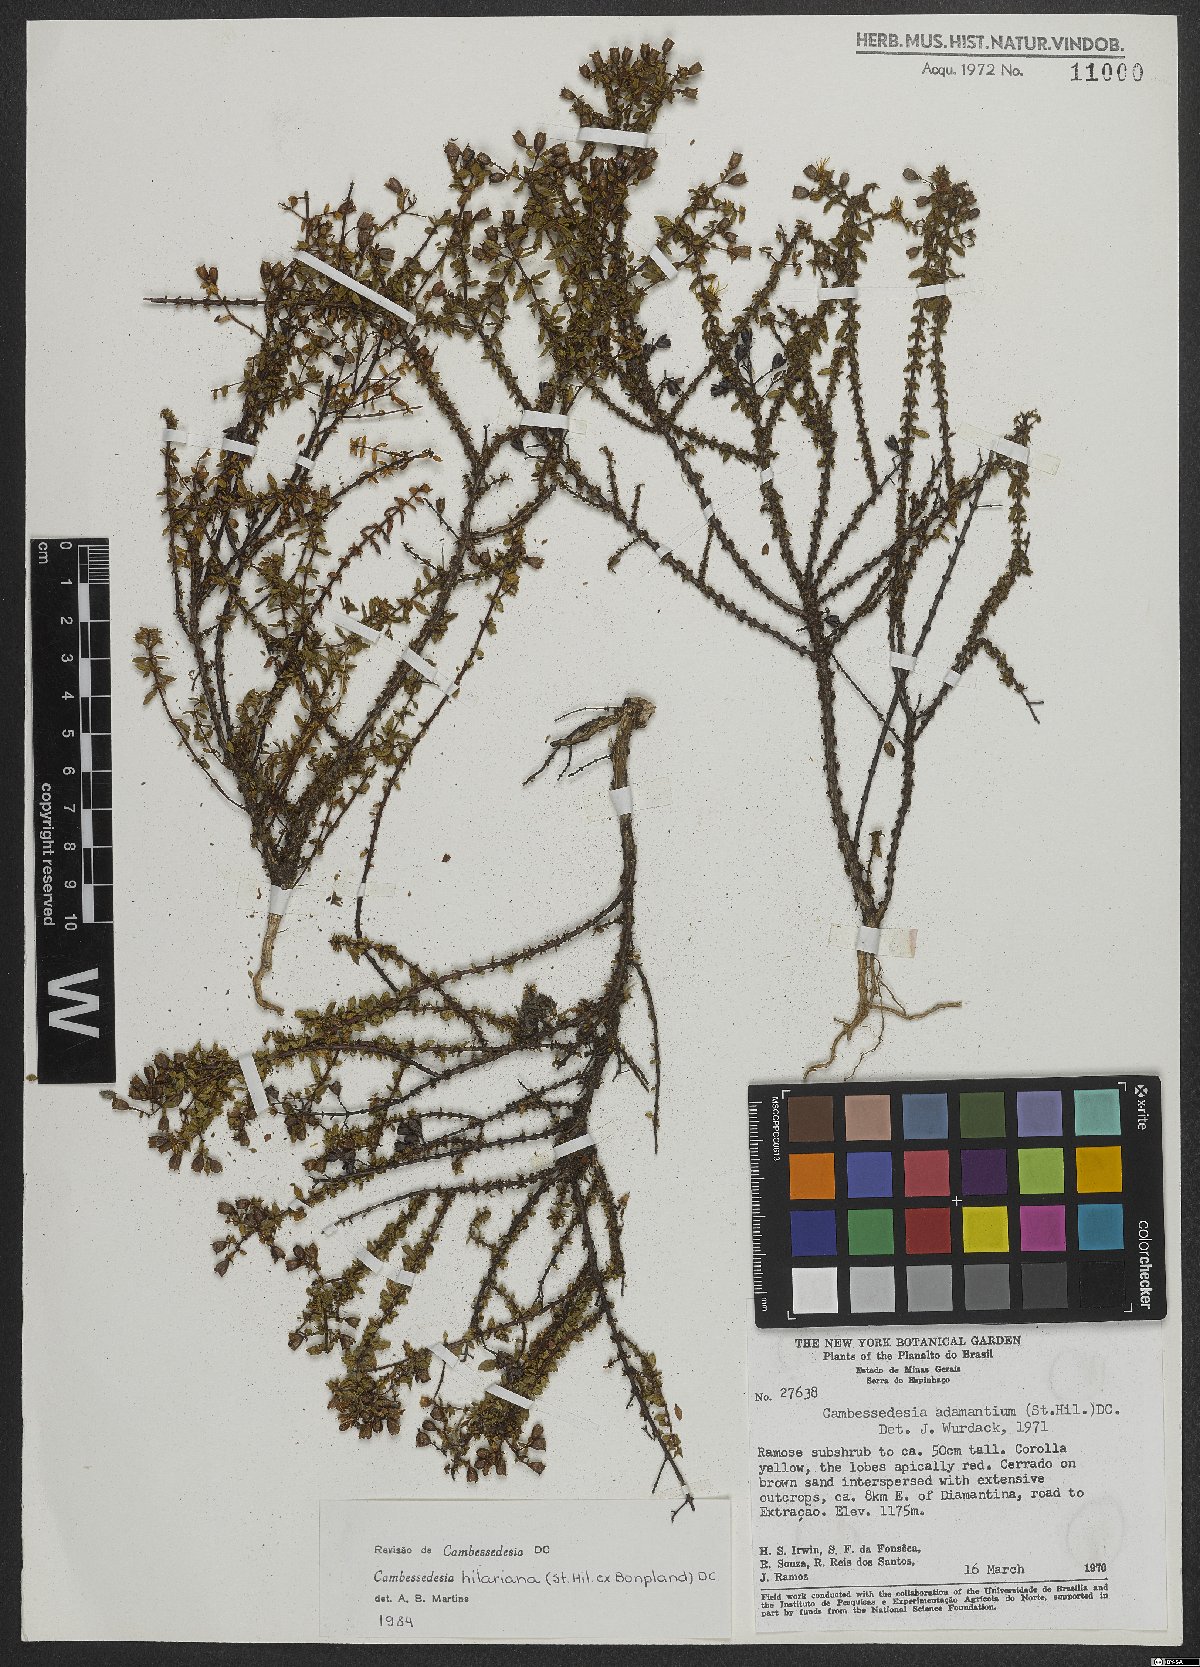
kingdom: Plantae
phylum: Tracheophyta
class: Magnoliopsida
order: Myrtales
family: Melastomataceae
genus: Cambessedesia
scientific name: Cambessedesia hilariana
